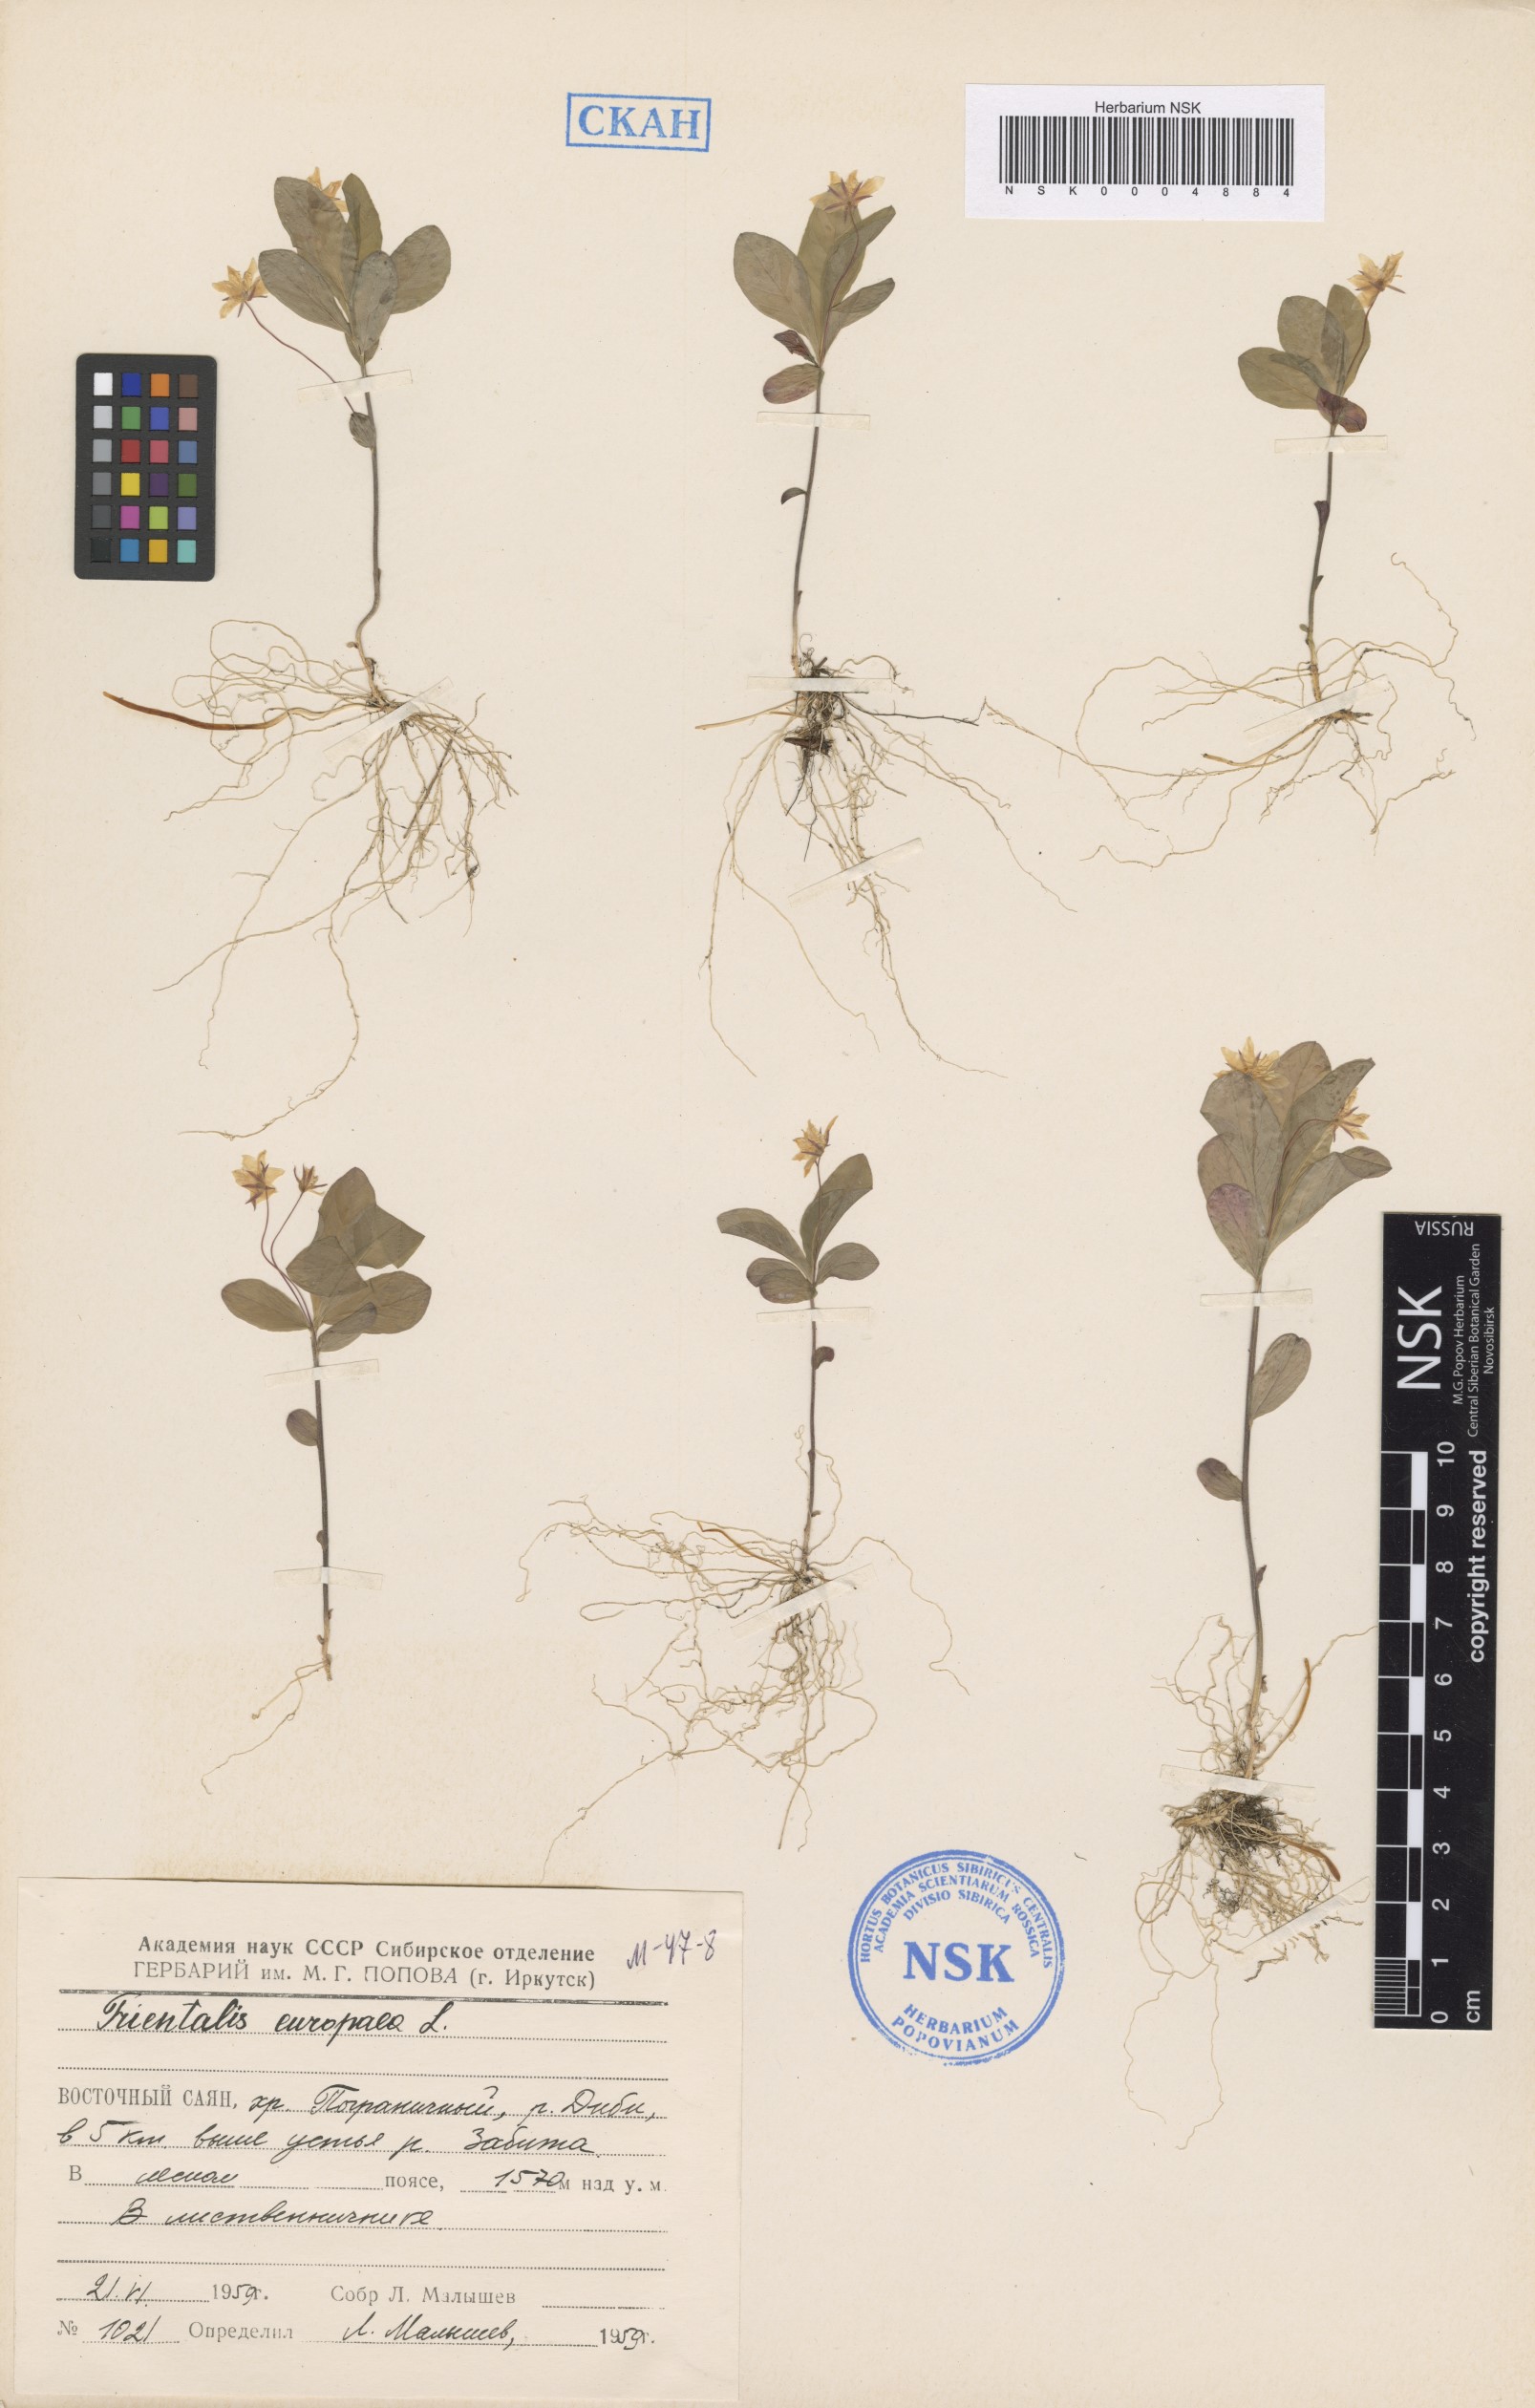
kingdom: Plantae
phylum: Tracheophyta
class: Magnoliopsida
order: Ericales
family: Primulaceae
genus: Lysimachia
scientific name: Lysimachia europaea
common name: Arctic starflower
